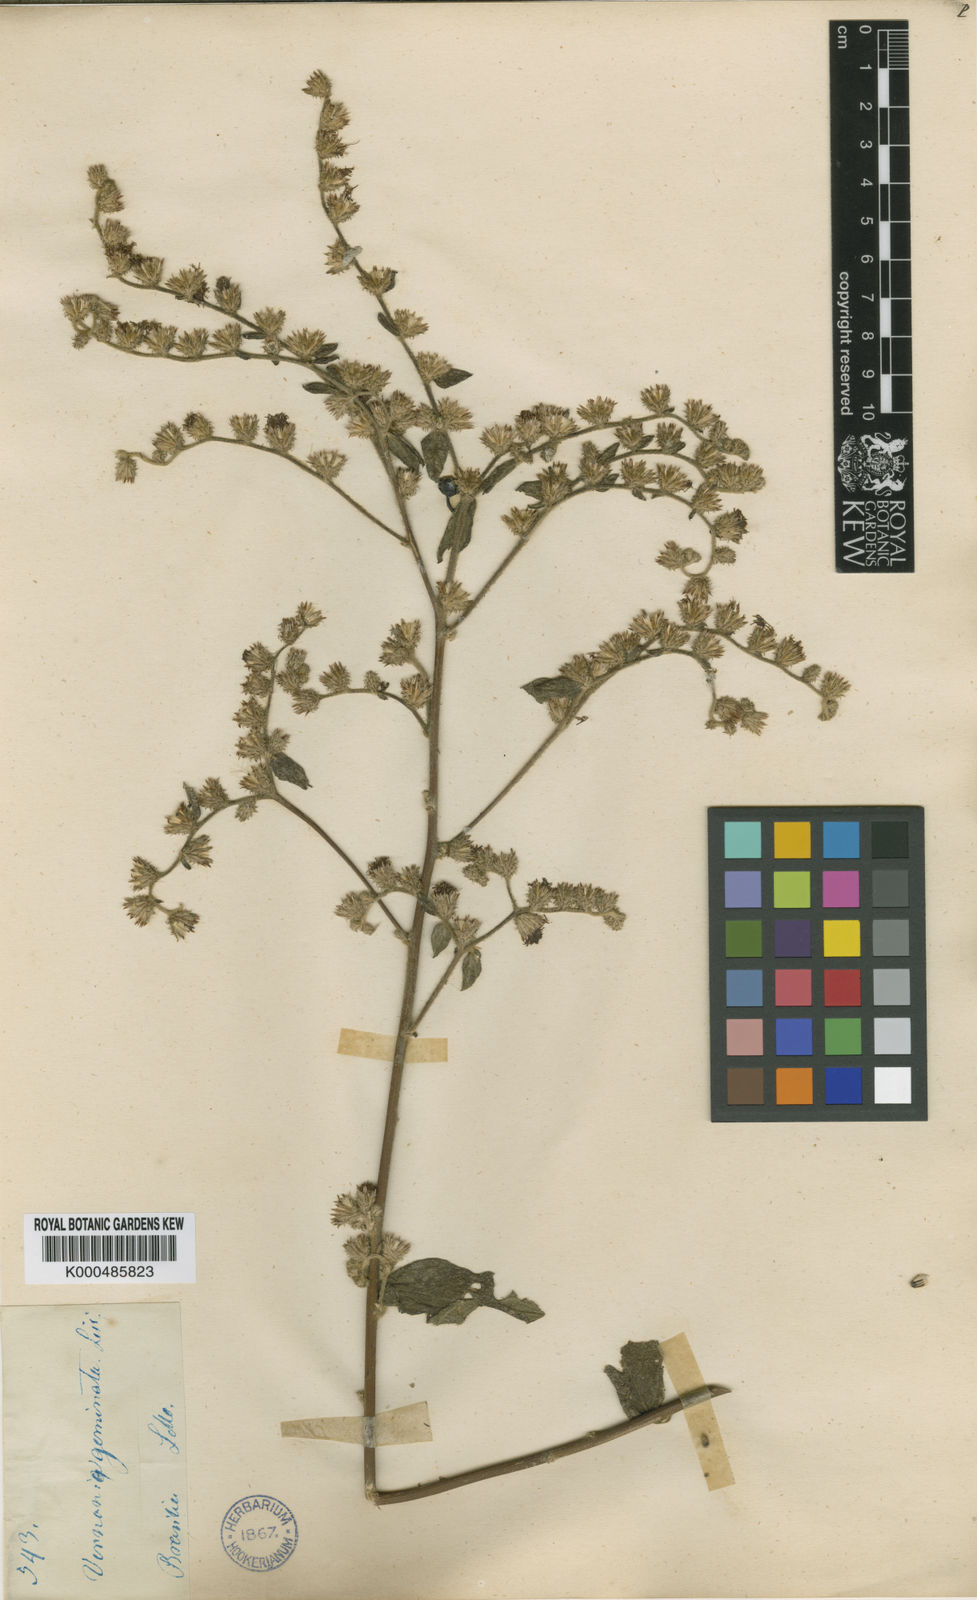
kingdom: Plantae
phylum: Tracheophyta
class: Magnoliopsida
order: Asterales
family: Asteraceae
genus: Vernonia
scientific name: Vernonia
